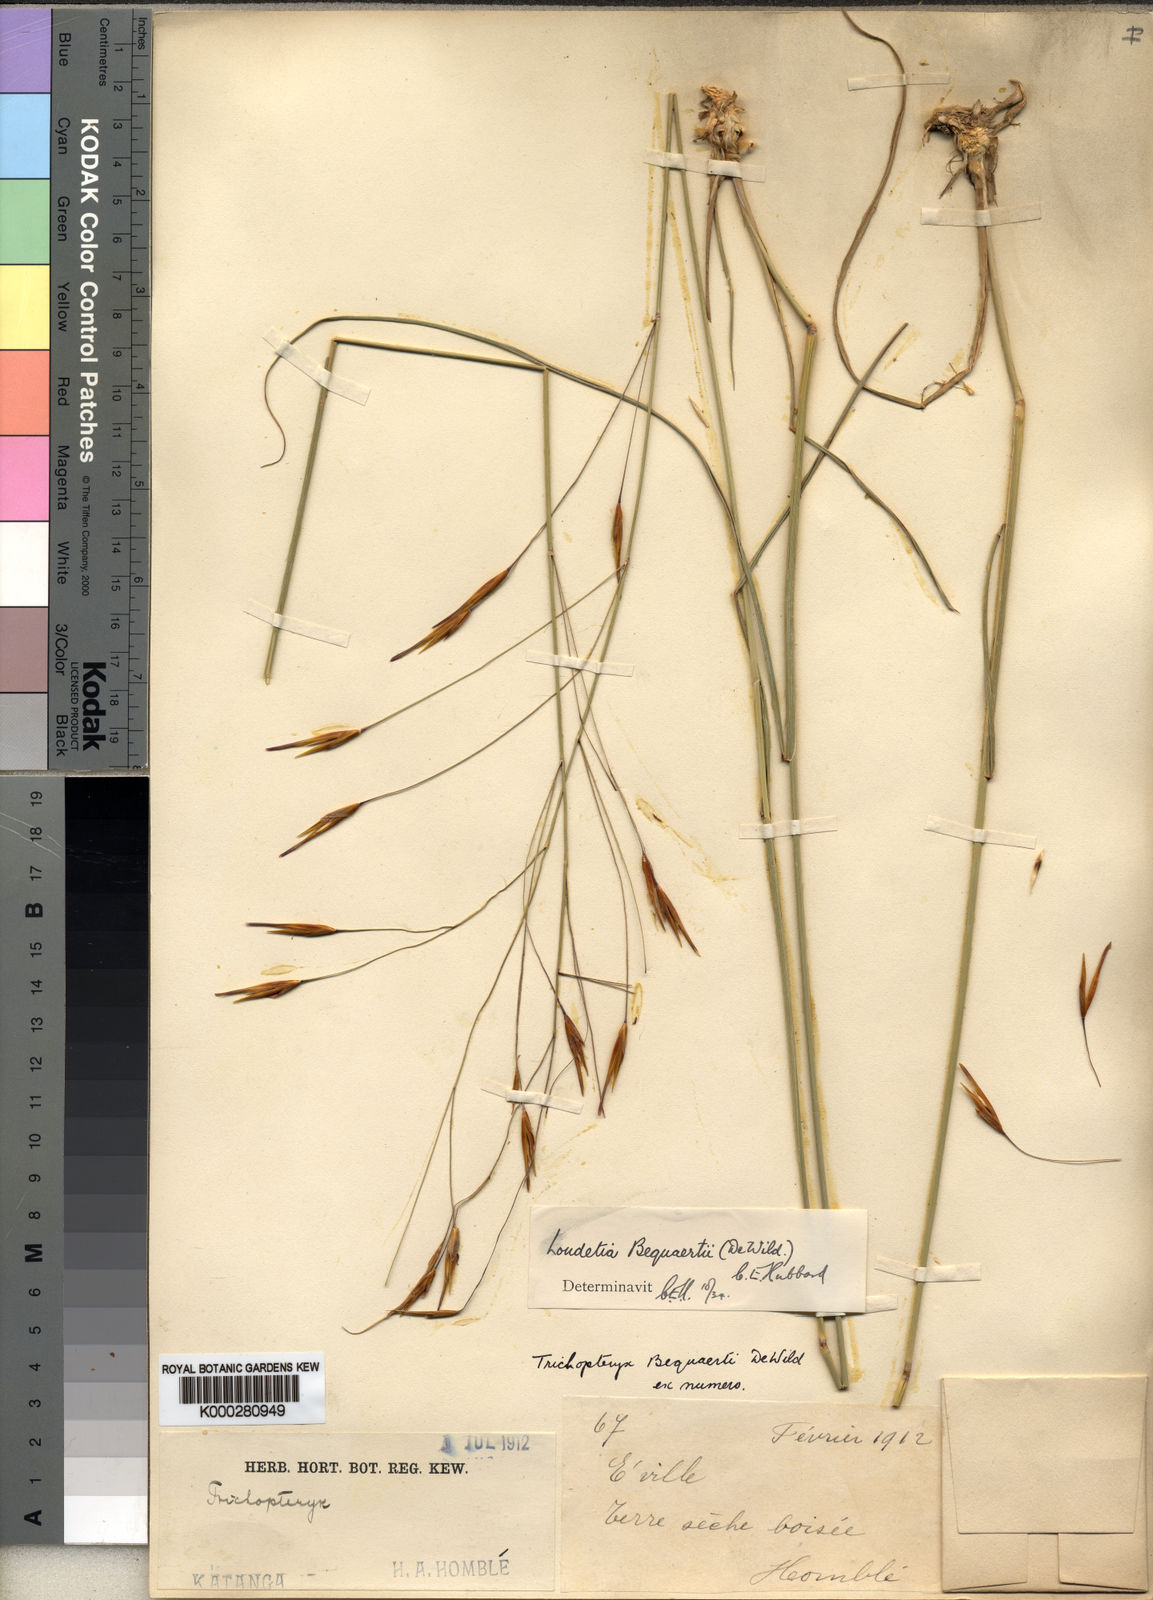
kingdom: Plantae
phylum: Tracheophyta
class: Liliopsida
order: Poales
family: Poaceae
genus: Tristachya
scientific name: Tristachya hubbardiana
